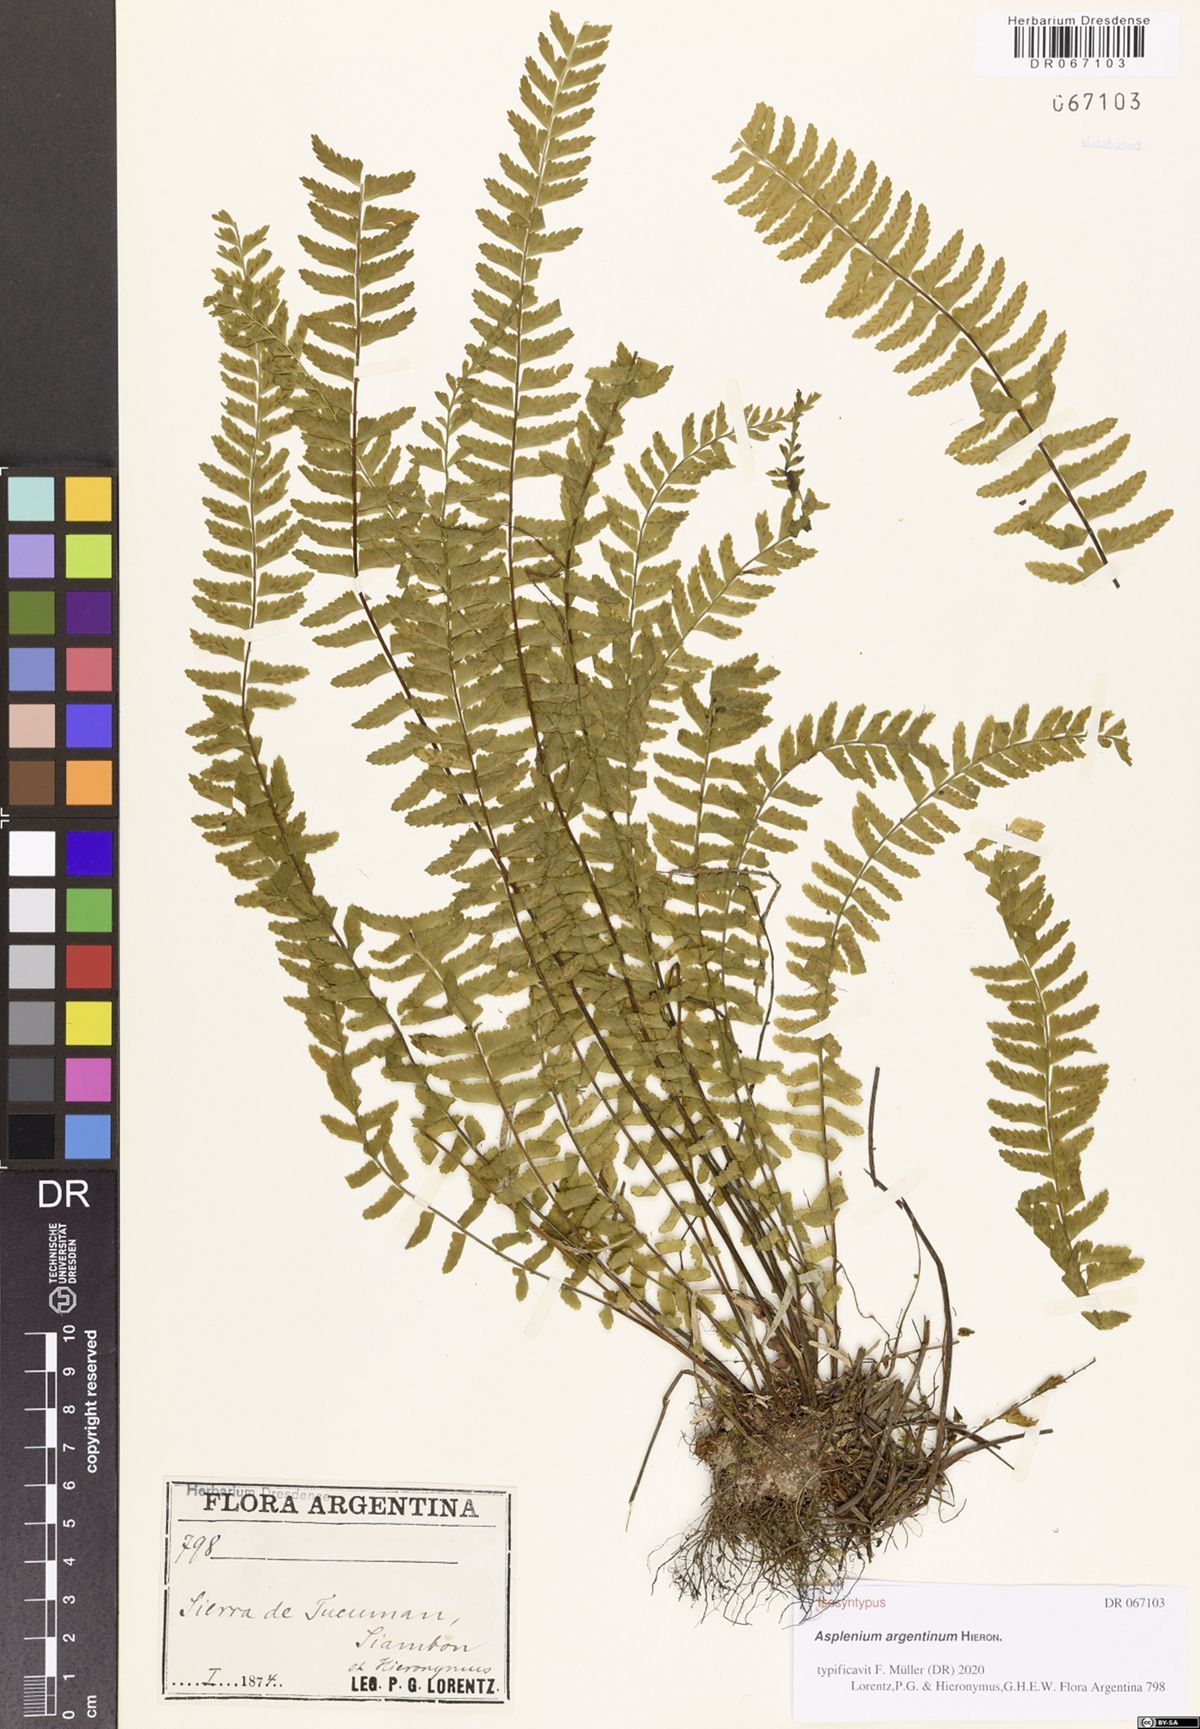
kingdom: Plantae
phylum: Tracheophyta
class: Polypodiopsida
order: Polypodiales
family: Aspleniaceae
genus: Asplenium
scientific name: Asplenium argentinum
